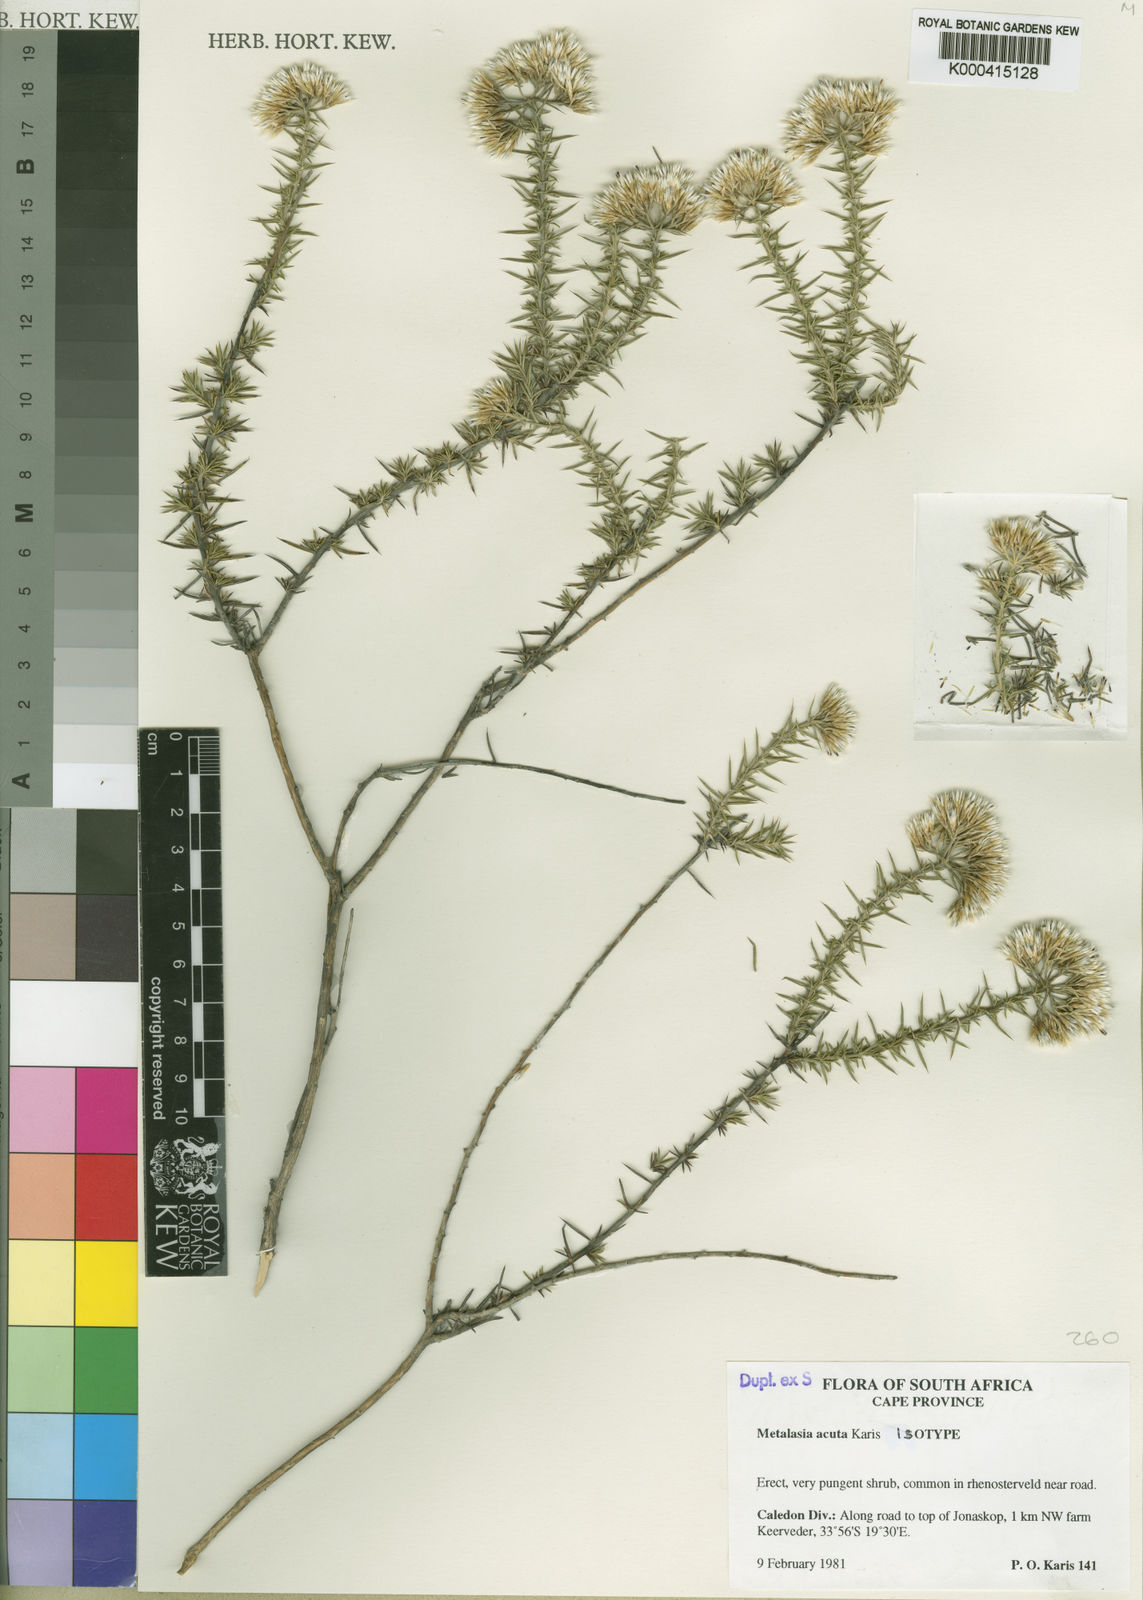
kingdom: Plantae
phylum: Tracheophyta
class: Magnoliopsida
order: Asterales
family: Asteraceae
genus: Metalasia
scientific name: Metalasia acuta
